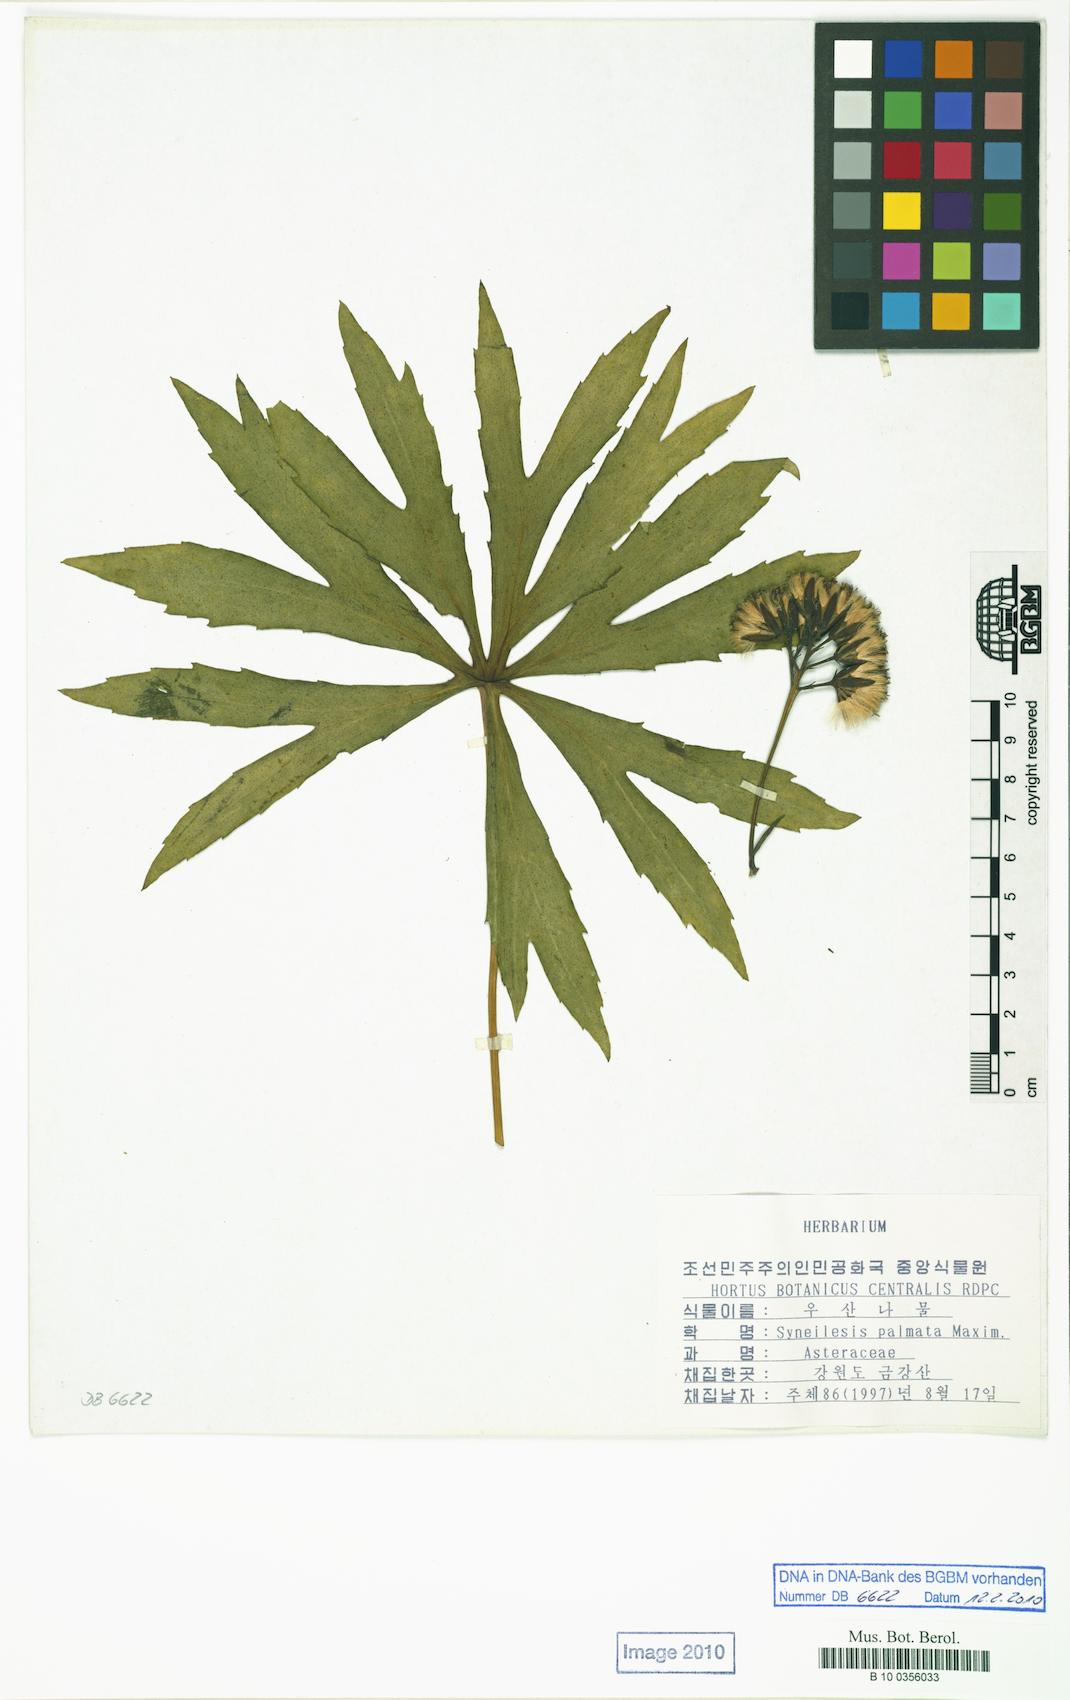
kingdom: Plantae
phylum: Tracheophyta
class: Magnoliopsida
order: Asterales
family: Asteraceae
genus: Syneilesis
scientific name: Syneilesis palmata
